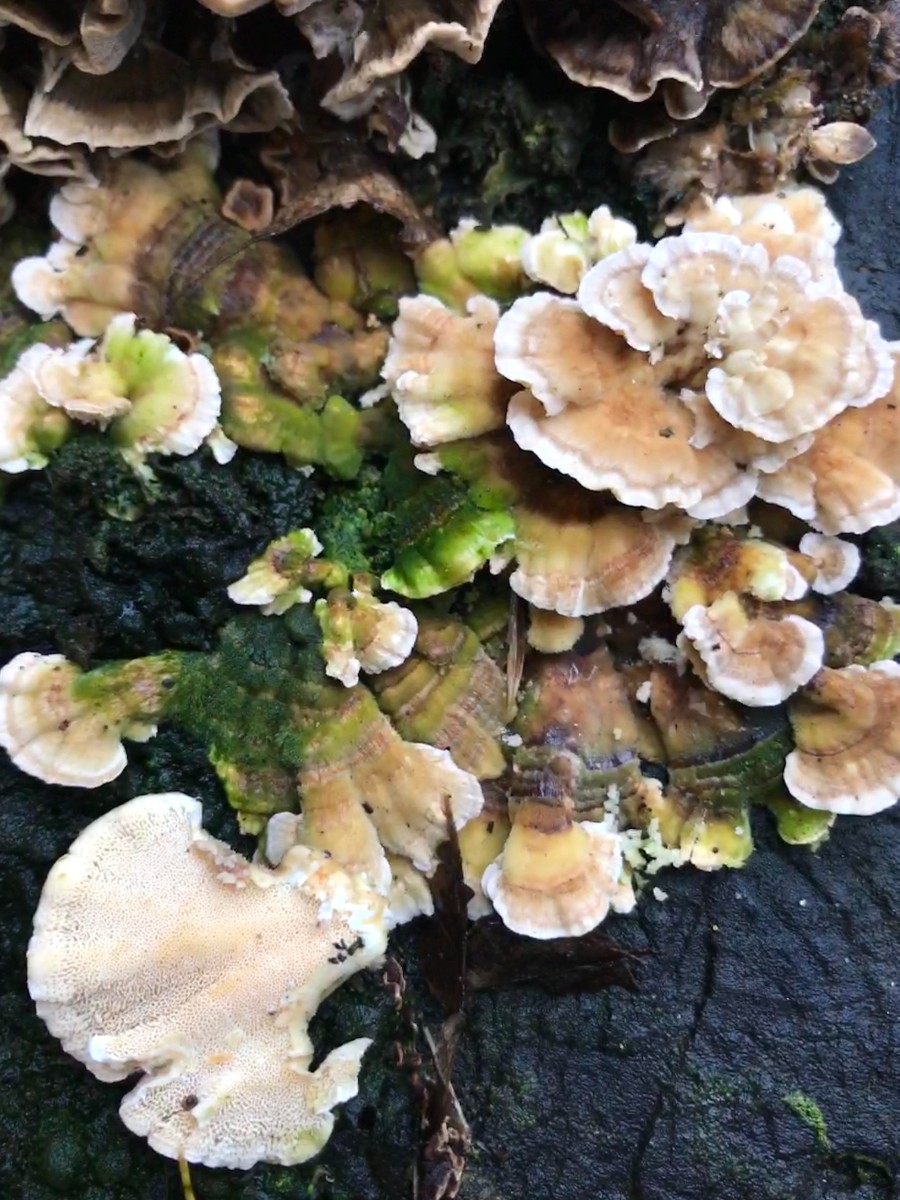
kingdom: Fungi
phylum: Basidiomycota
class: Agaricomycetes
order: Polyporales
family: Polyporaceae
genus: Trametes
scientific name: Trametes hirsuta
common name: håret læderporesvamp
